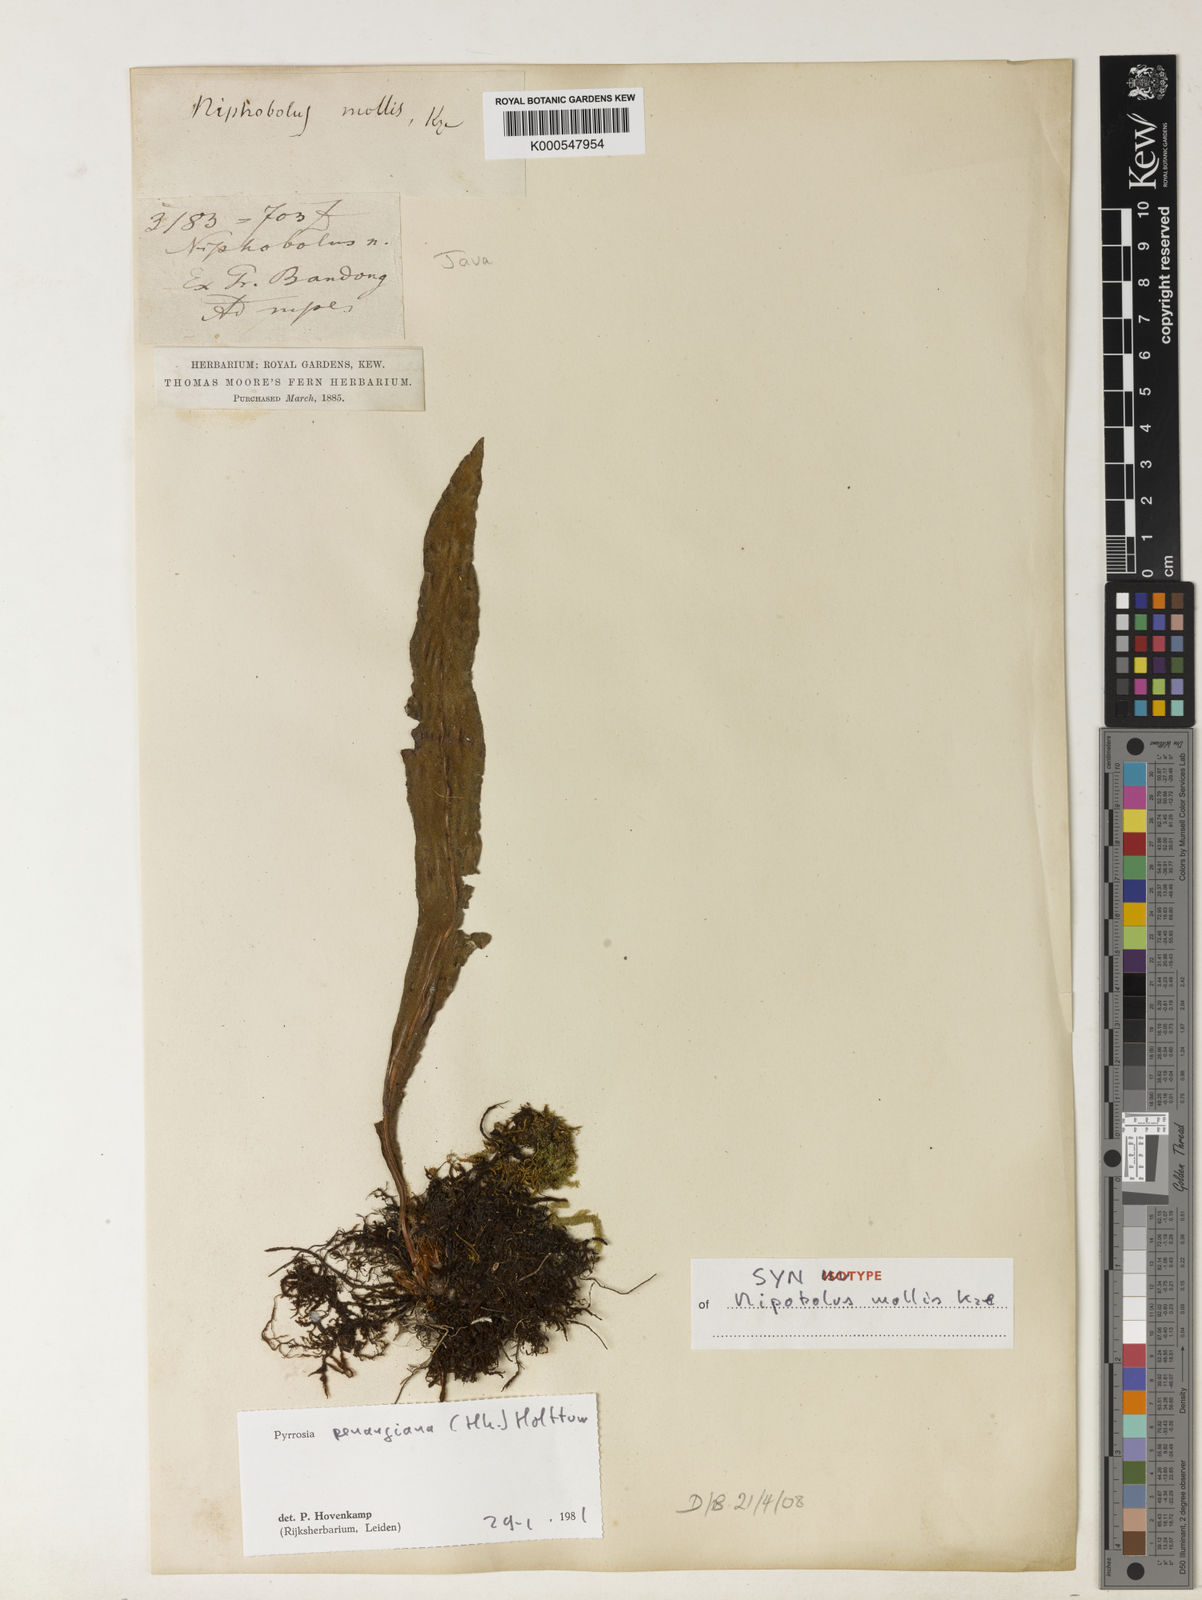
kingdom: Plantae
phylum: Tracheophyta
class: Polypodiopsida
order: Polypodiales
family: Polypodiaceae
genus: Pyrrosia
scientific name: Pyrrosia penangiana
